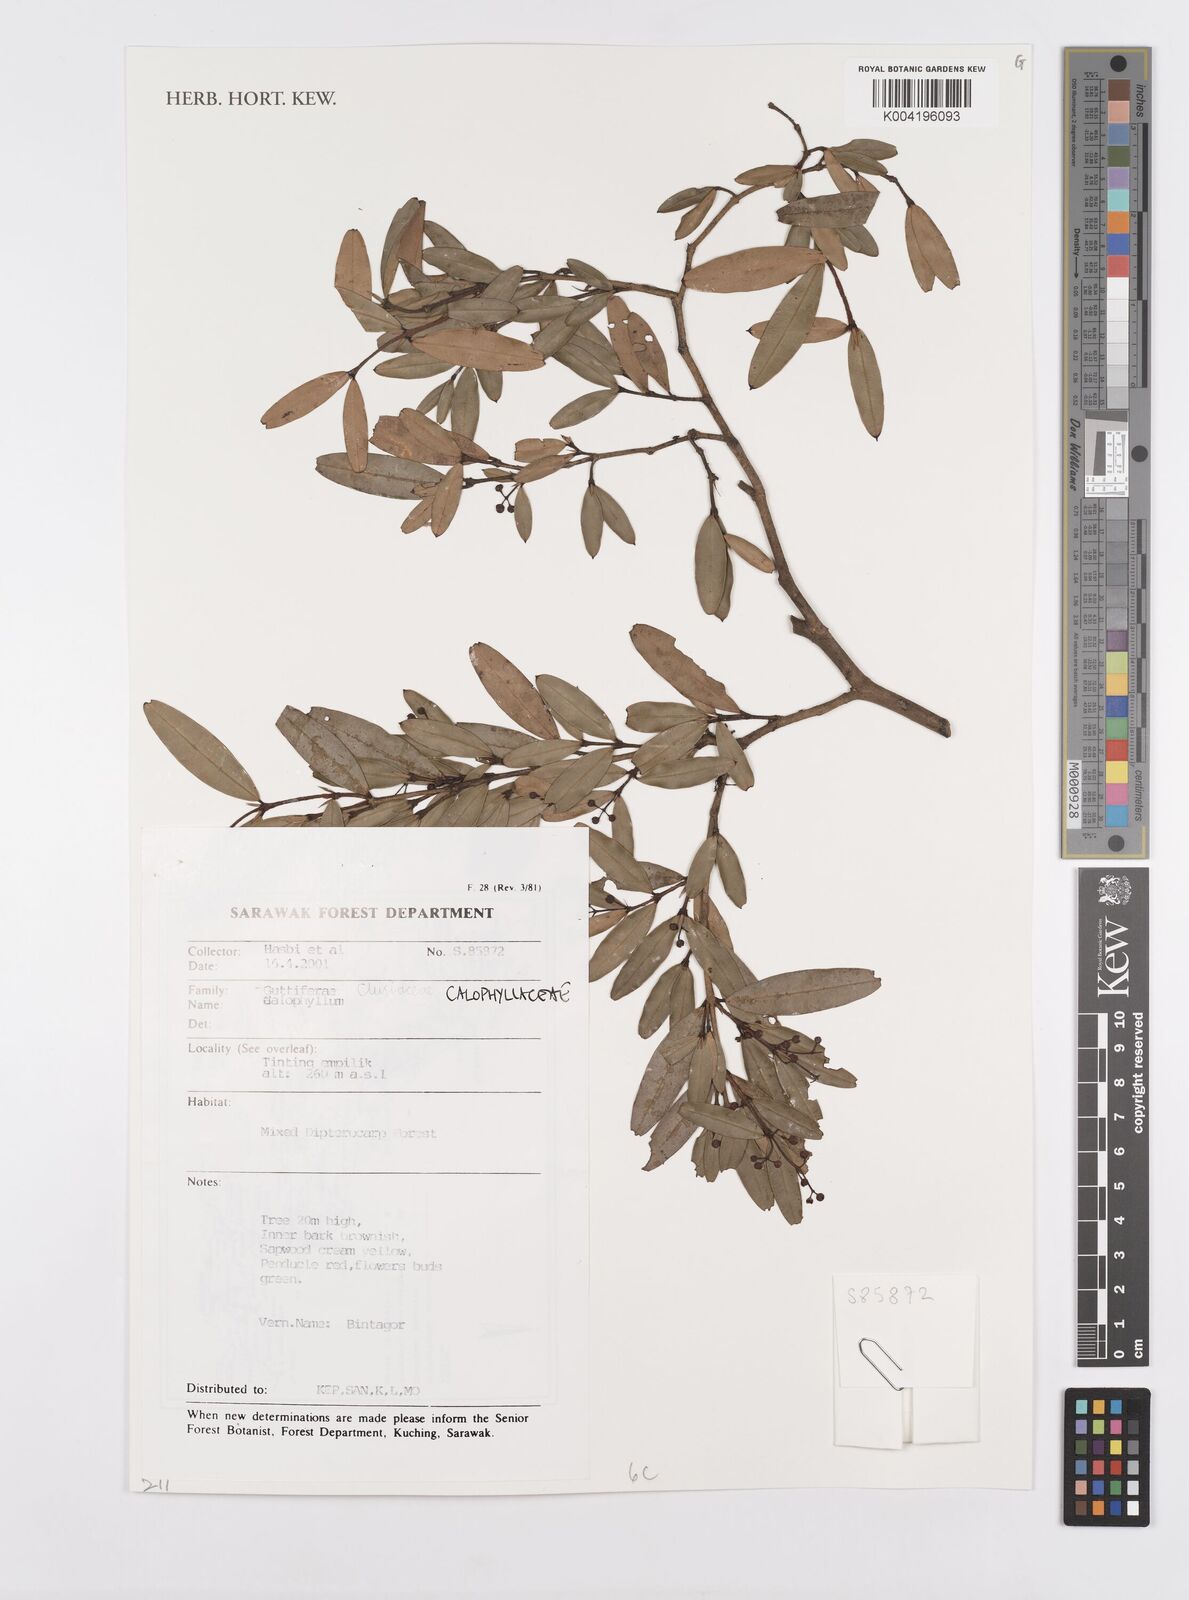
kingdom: Plantae
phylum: Tracheophyta
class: Magnoliopsida
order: Malpighiales
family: Calophyllaceae
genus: Calophyllum
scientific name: Calophyllum
